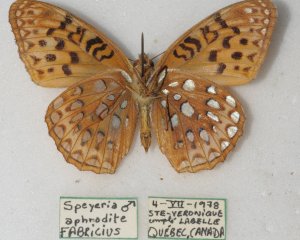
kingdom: Animalia
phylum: Arthropoda
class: Insecta
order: Lepidoptera
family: Nymphalidae
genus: Speyeria
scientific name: Speyeria aphrodite
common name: Aphrodite Fritillary
